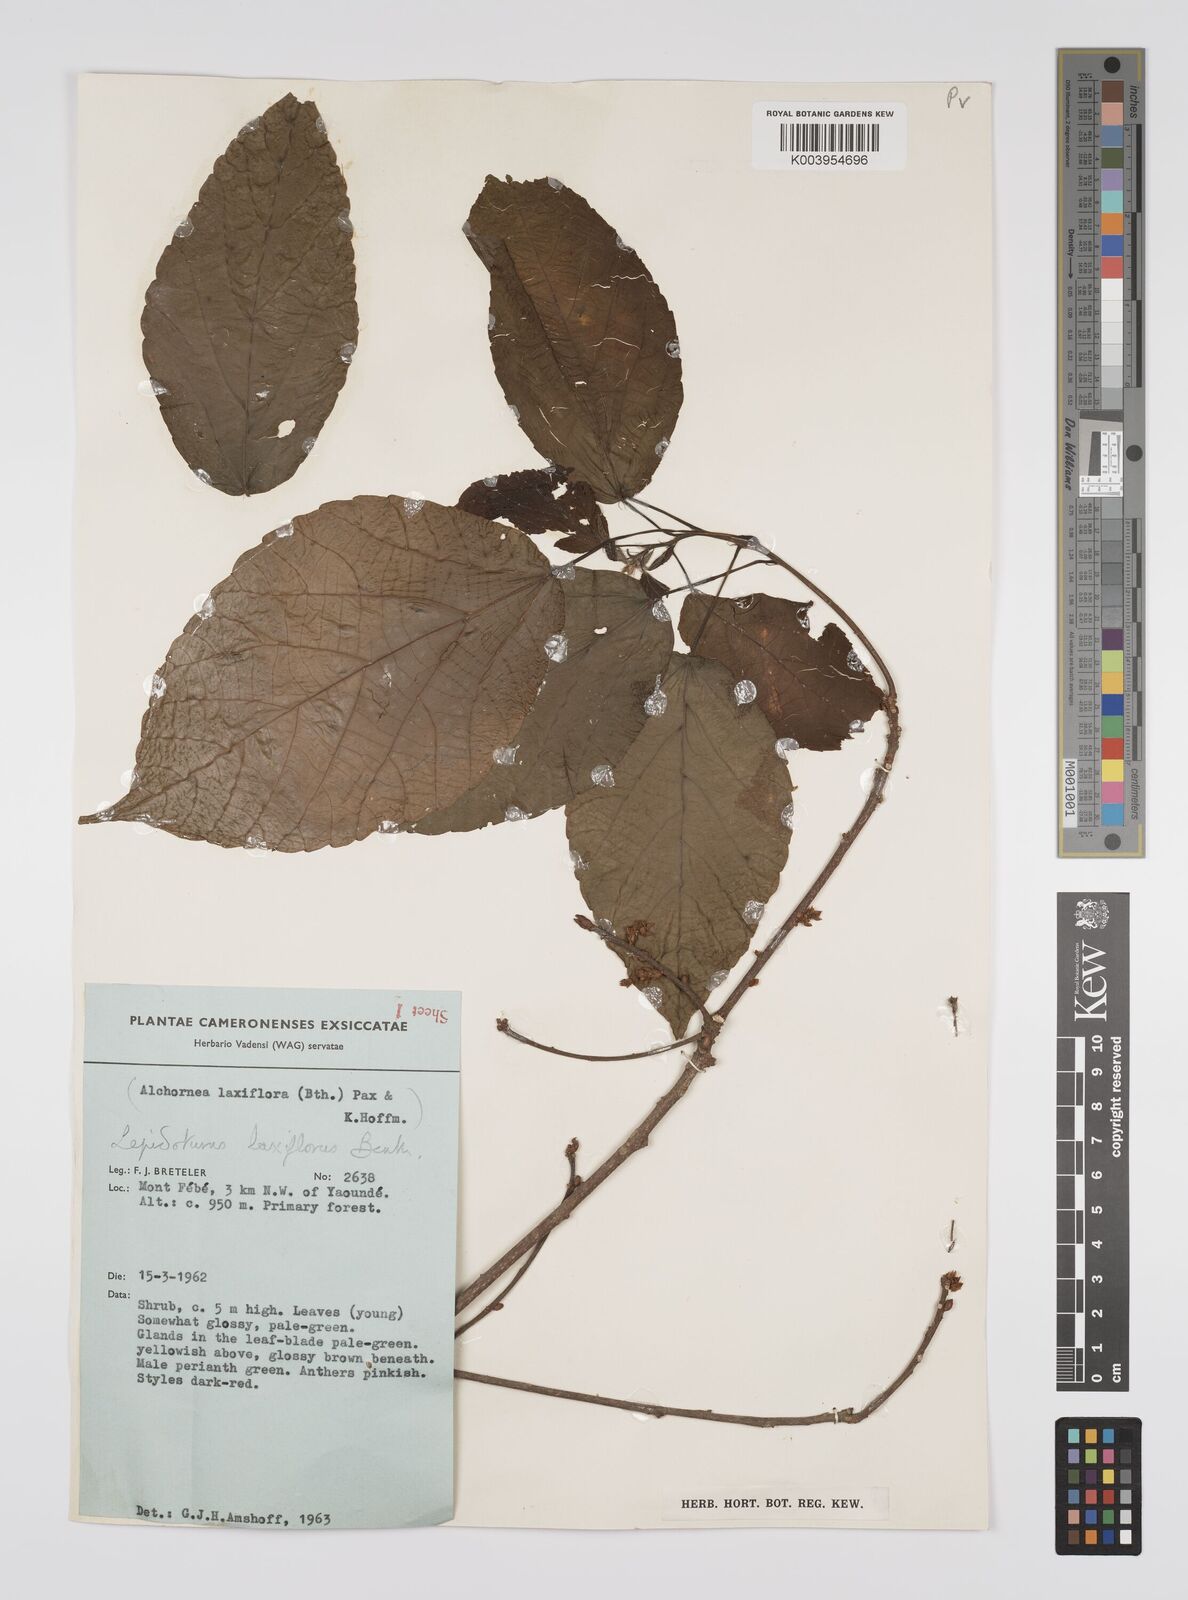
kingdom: Plantae
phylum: Tracheophyta
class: Magnoliopsida
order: Malpighiales
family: Euphorbiaceae
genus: Alchornea
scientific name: Alchornea laxiflora
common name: Lowveld bead-string
